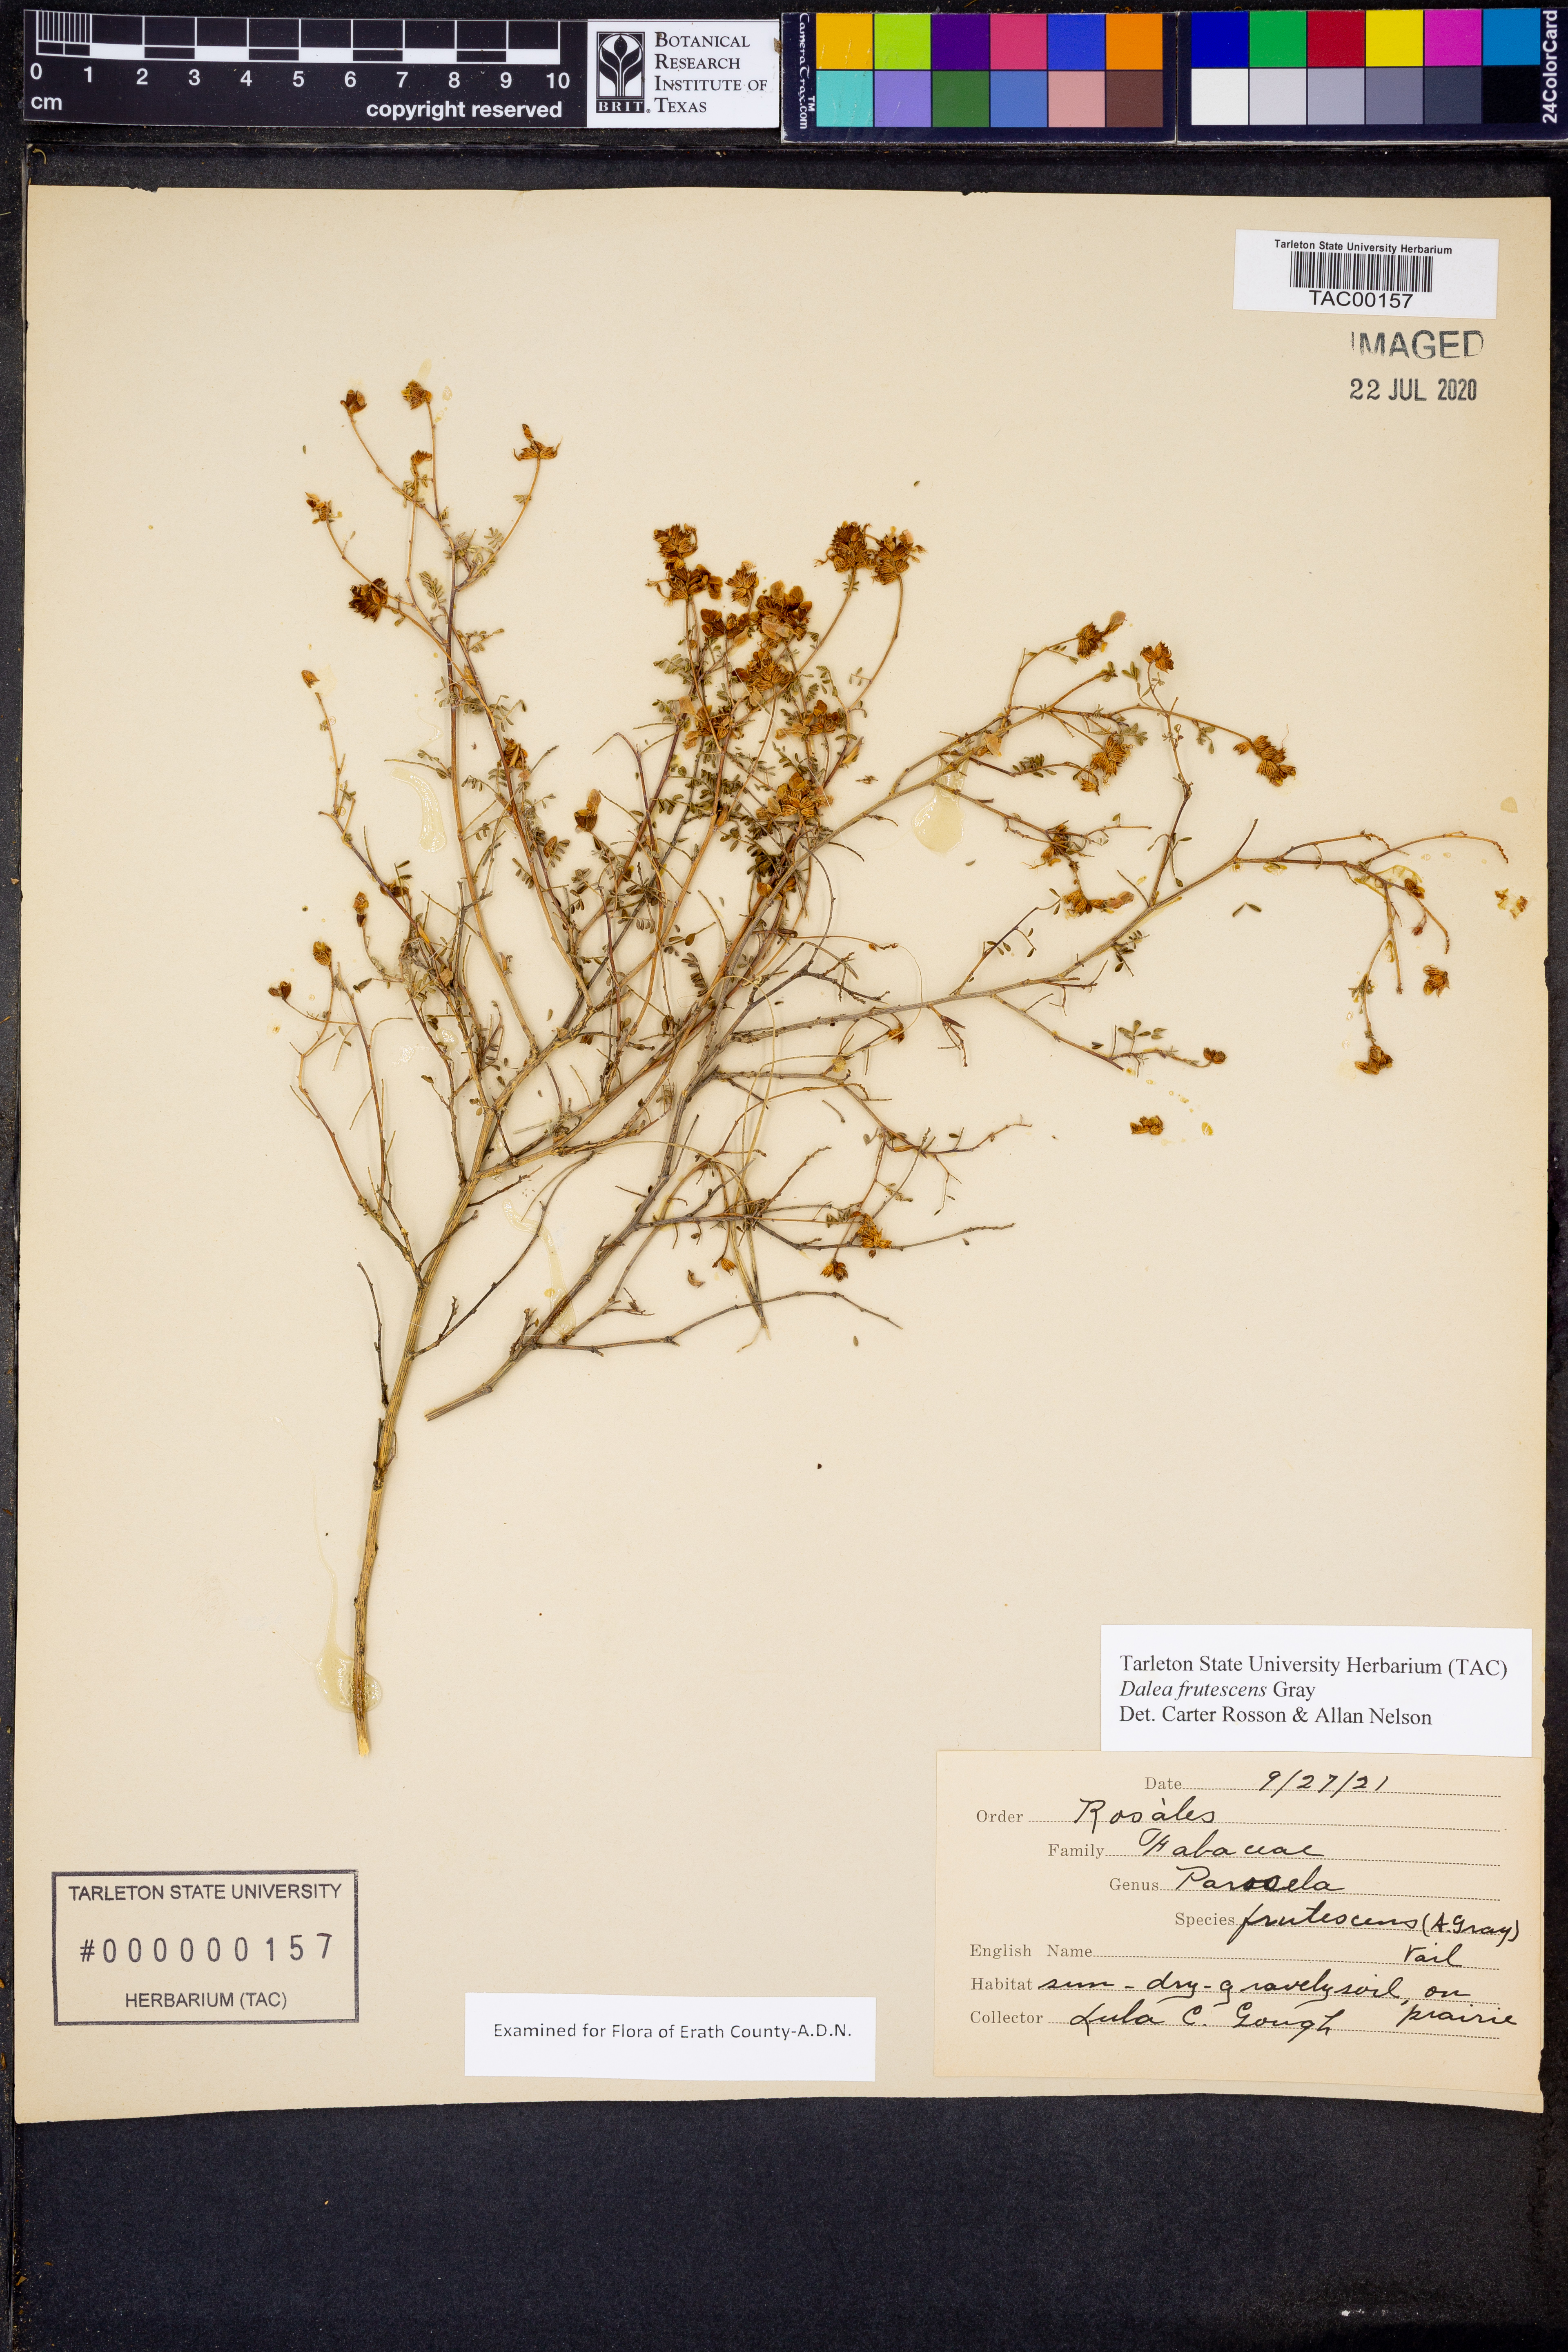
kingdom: Plantae
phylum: Tracheophyta
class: Magnoliopsida
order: Fabales
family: Fabaceae
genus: Dalea
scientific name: Dalea frutescens
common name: Black dalea
